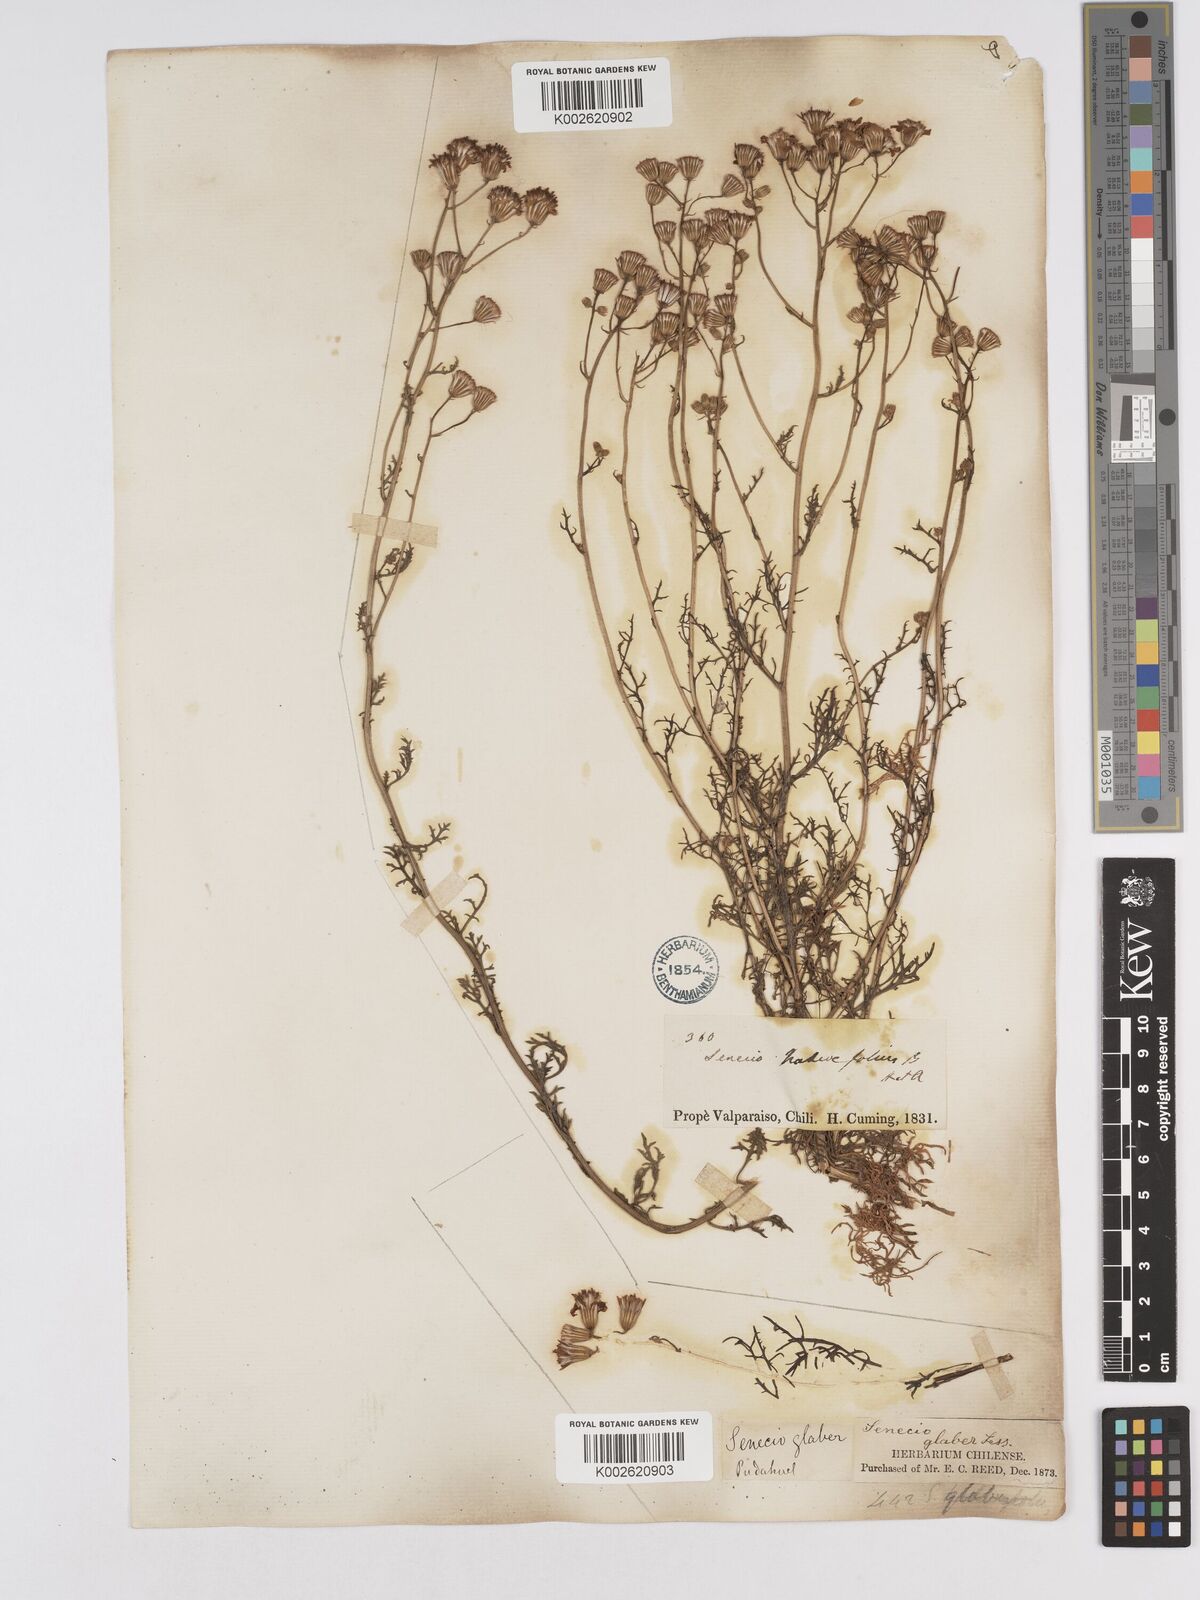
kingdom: Plantae
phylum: Tracheophyta
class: Magnoliopsida
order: Asterales
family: Asteraceae
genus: Senecio
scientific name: Senecio glaber
